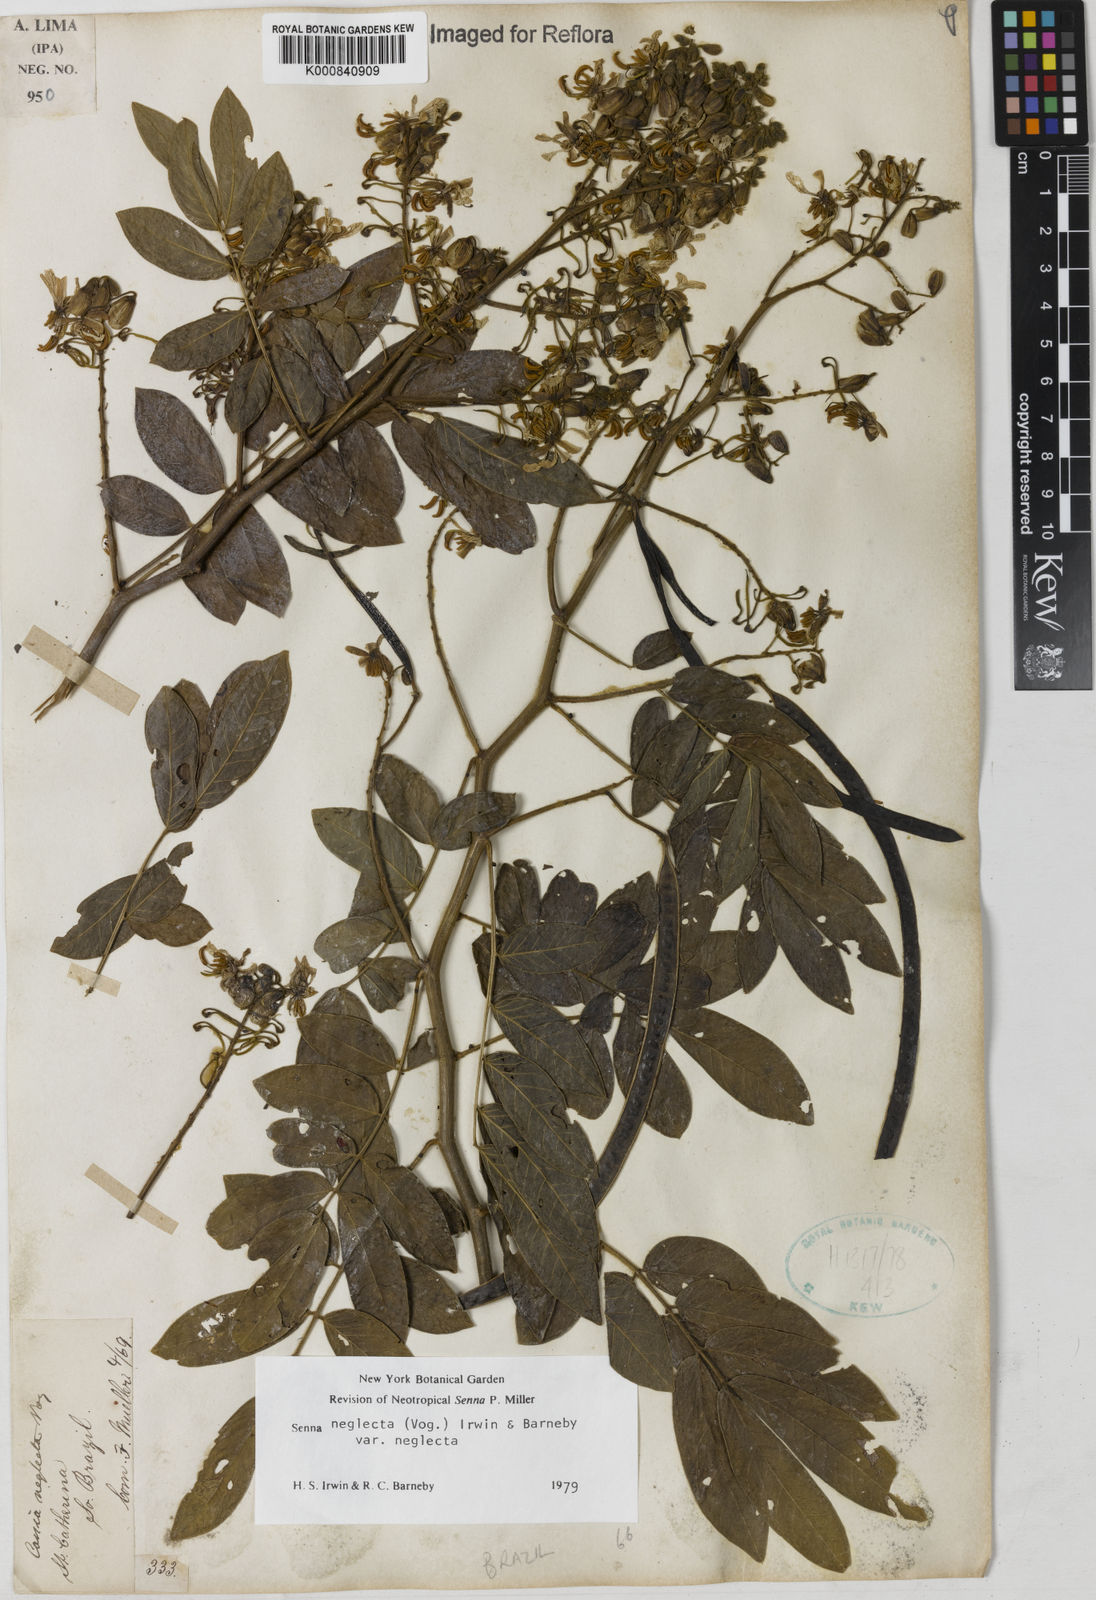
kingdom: Plantae
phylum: Tracheophyta
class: Magnoliopsida
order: Fabales
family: Fabaceae
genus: Senna
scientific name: Senna neglecta
